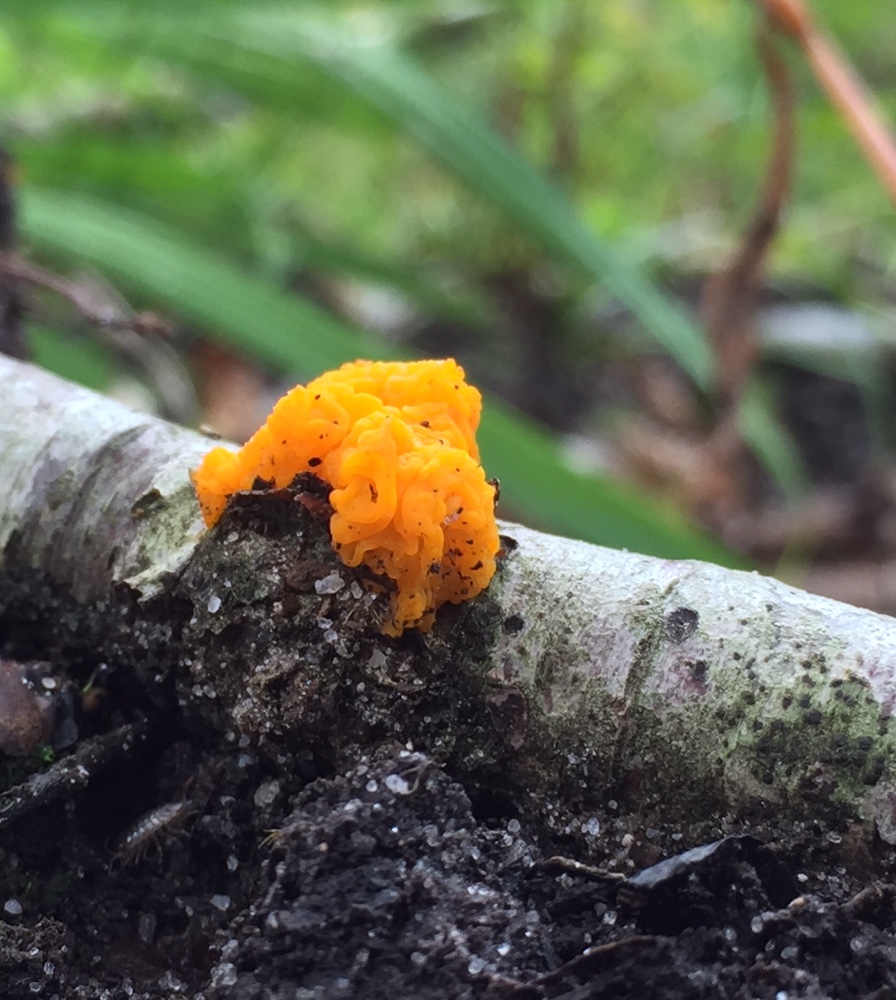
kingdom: Fungi
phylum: Basidiomycota
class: Tremellomycetes
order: Tremellales
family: Tremellaceae
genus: Tremella
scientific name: Tremella mesenterica
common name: gul bævresvamp
